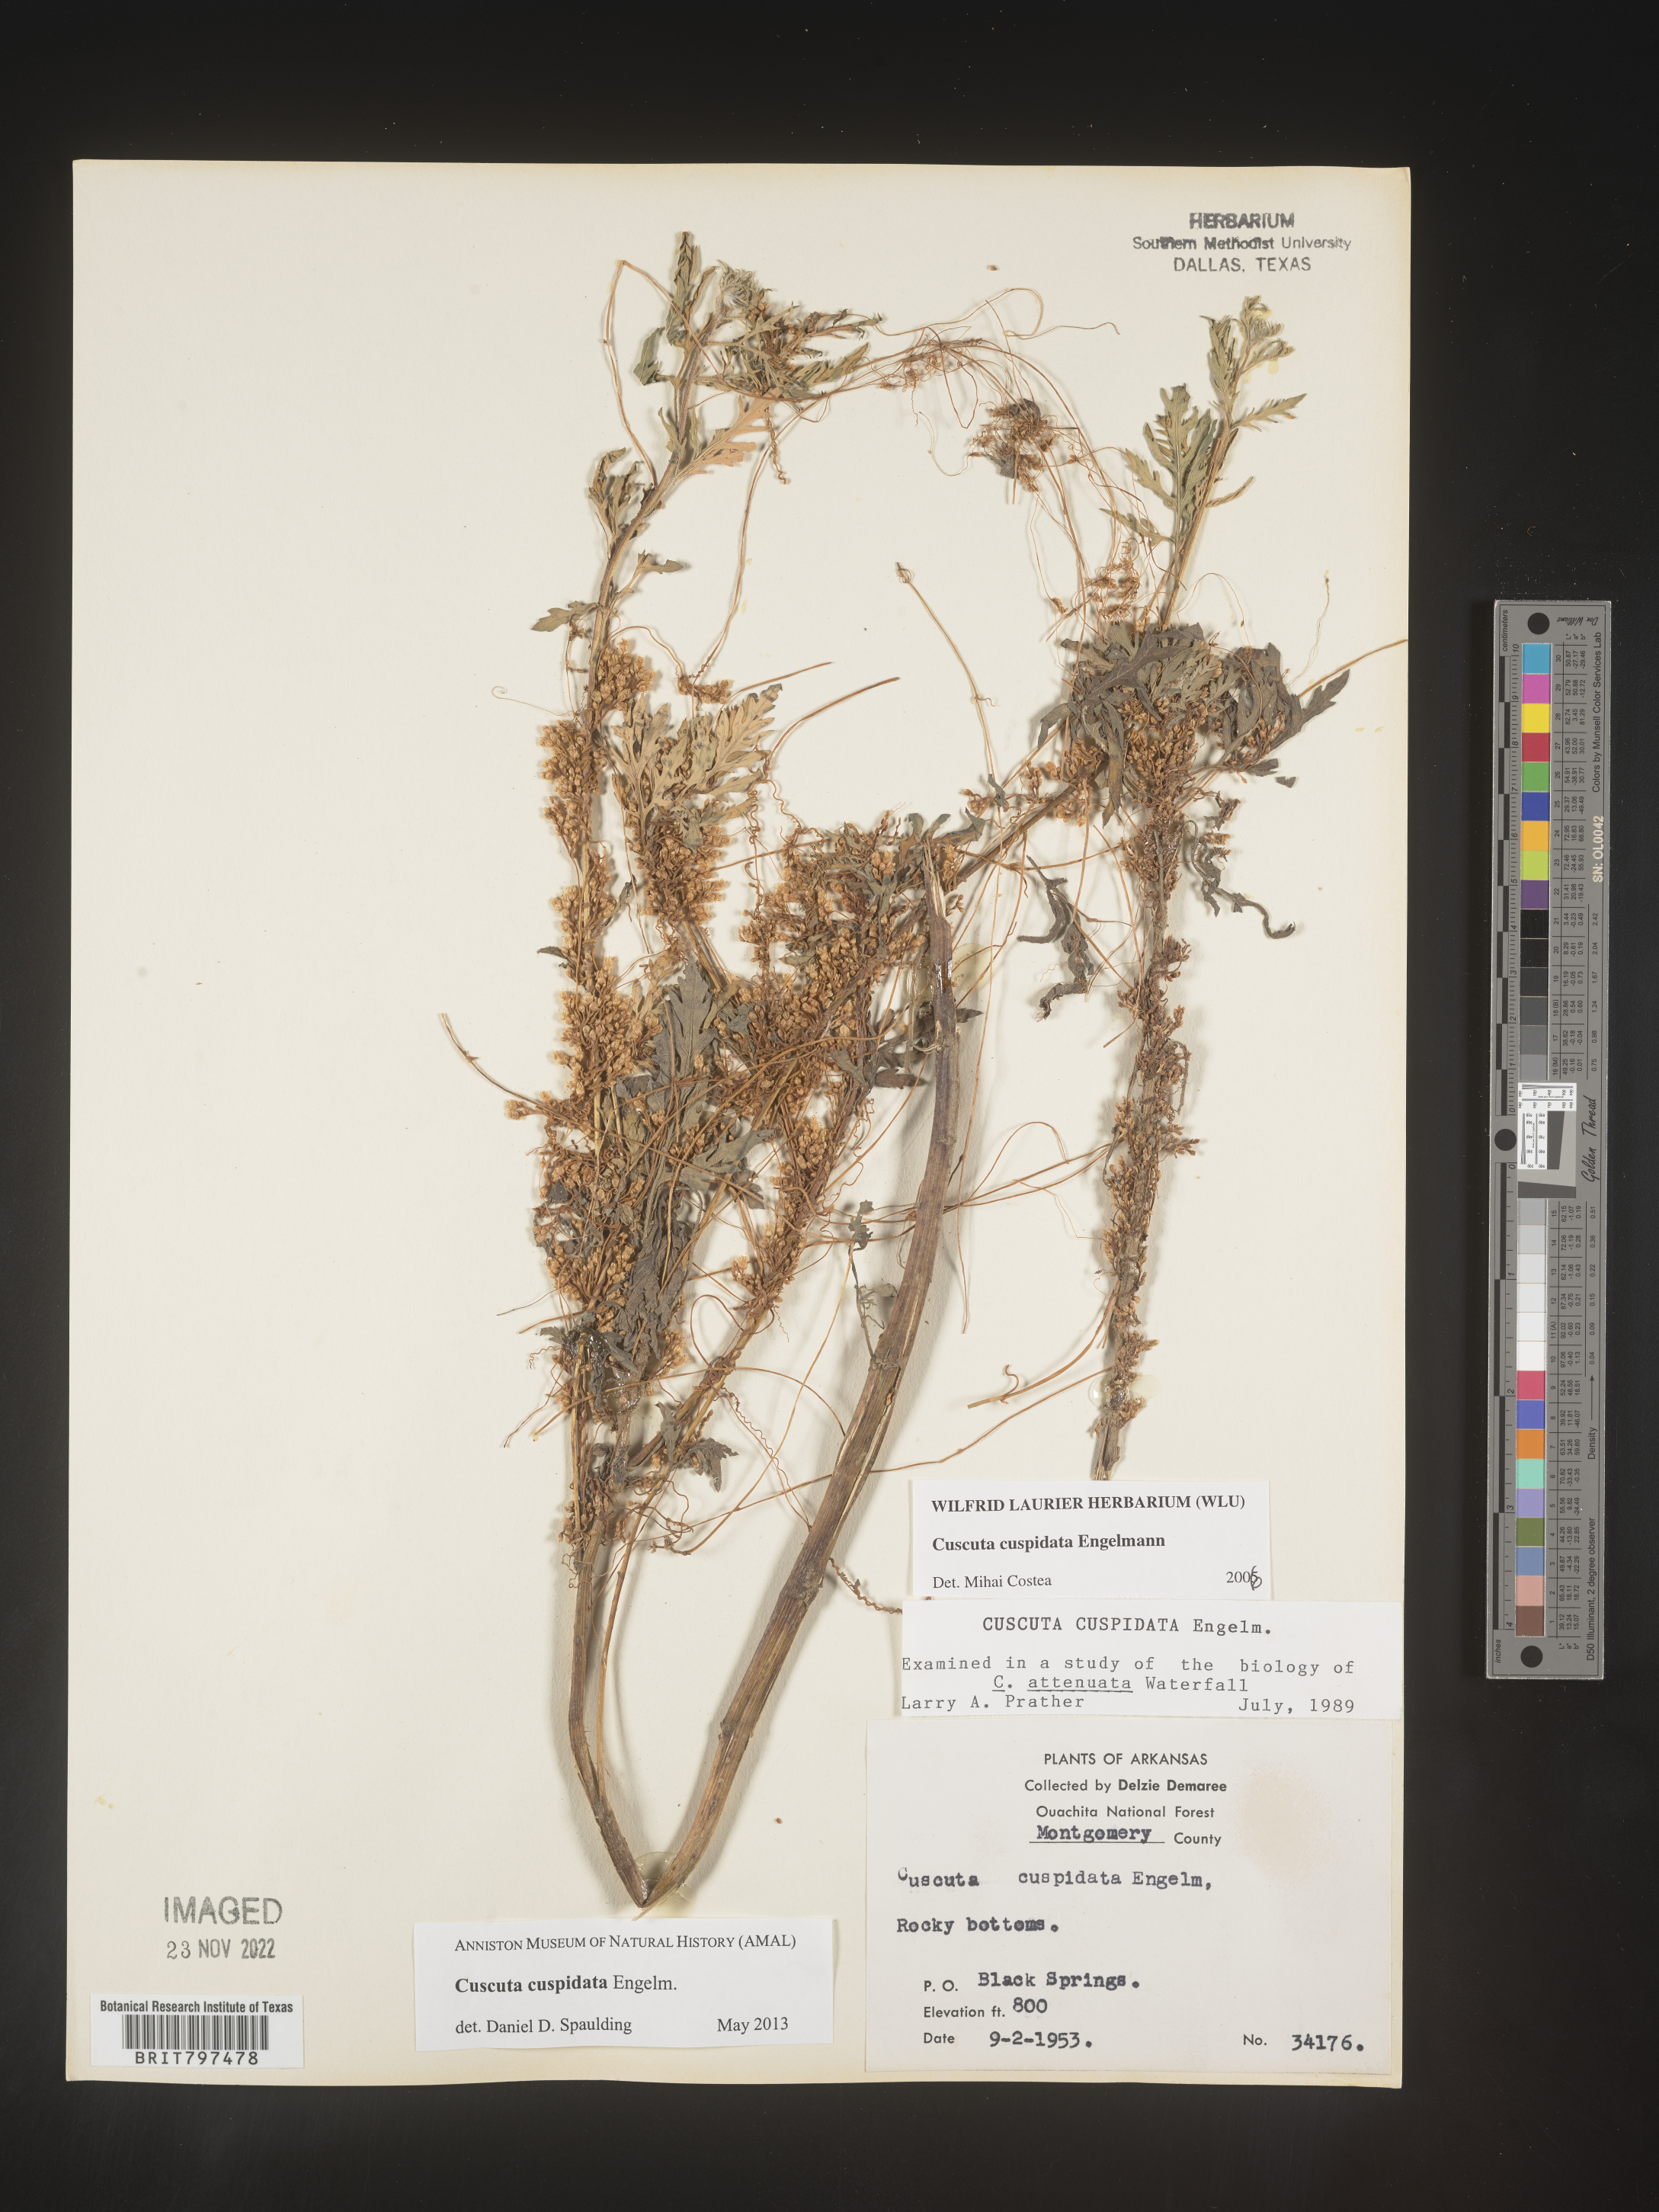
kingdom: Plantae
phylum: Tracheophyta
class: Magnoliopsida
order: Solanales
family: Convolvulaceae
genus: Cuscuta
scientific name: Cuscuta cuspidata
